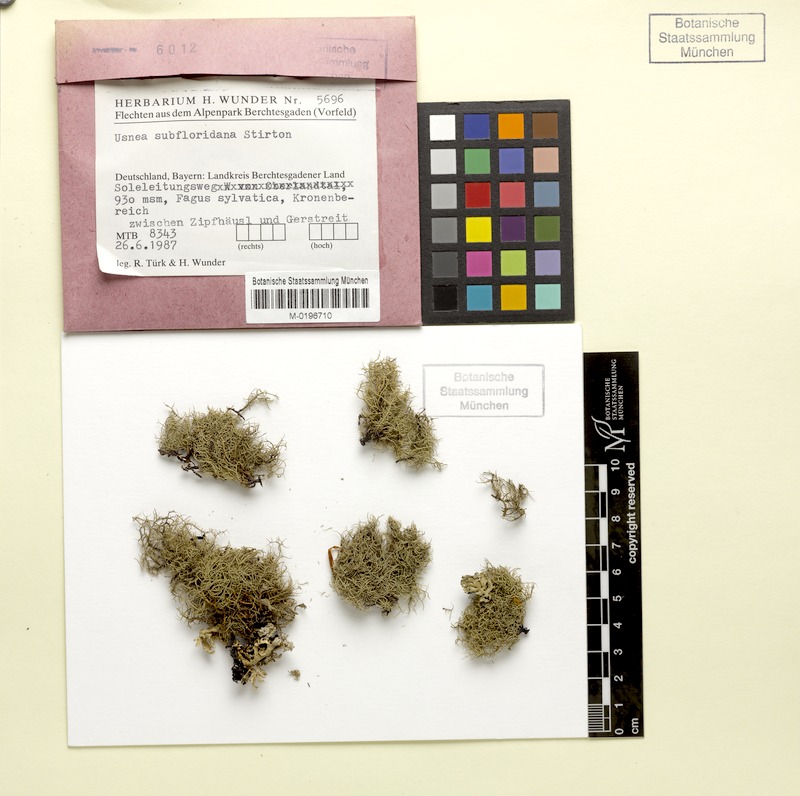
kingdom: Fungi
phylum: Ascomycota
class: Lecanoromycetes
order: Lecanorales
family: Parmeliaceae
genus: Usnea
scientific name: Usnea subfloridana
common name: Boreal beard lichen
